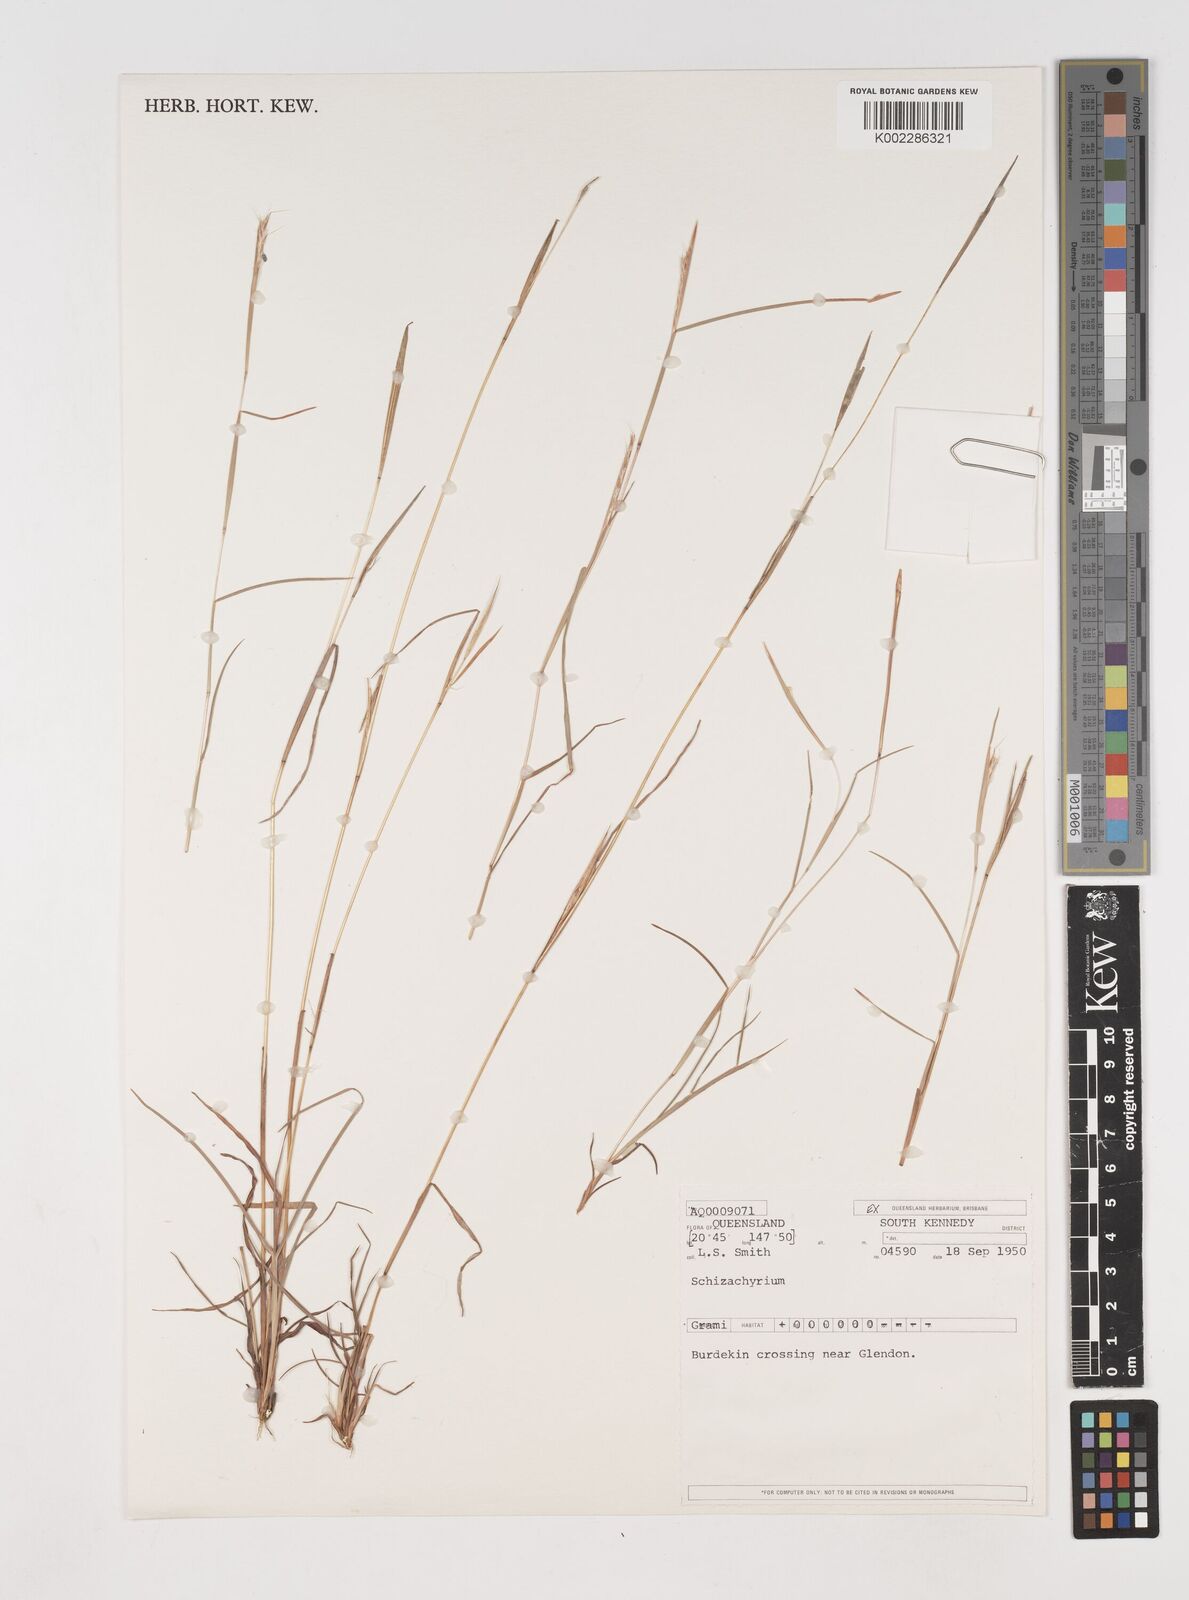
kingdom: Plantae
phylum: Tracheophyta
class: Liliopsida
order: Poales
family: Poaceae
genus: Schizachyrium
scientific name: Schizachyrium
